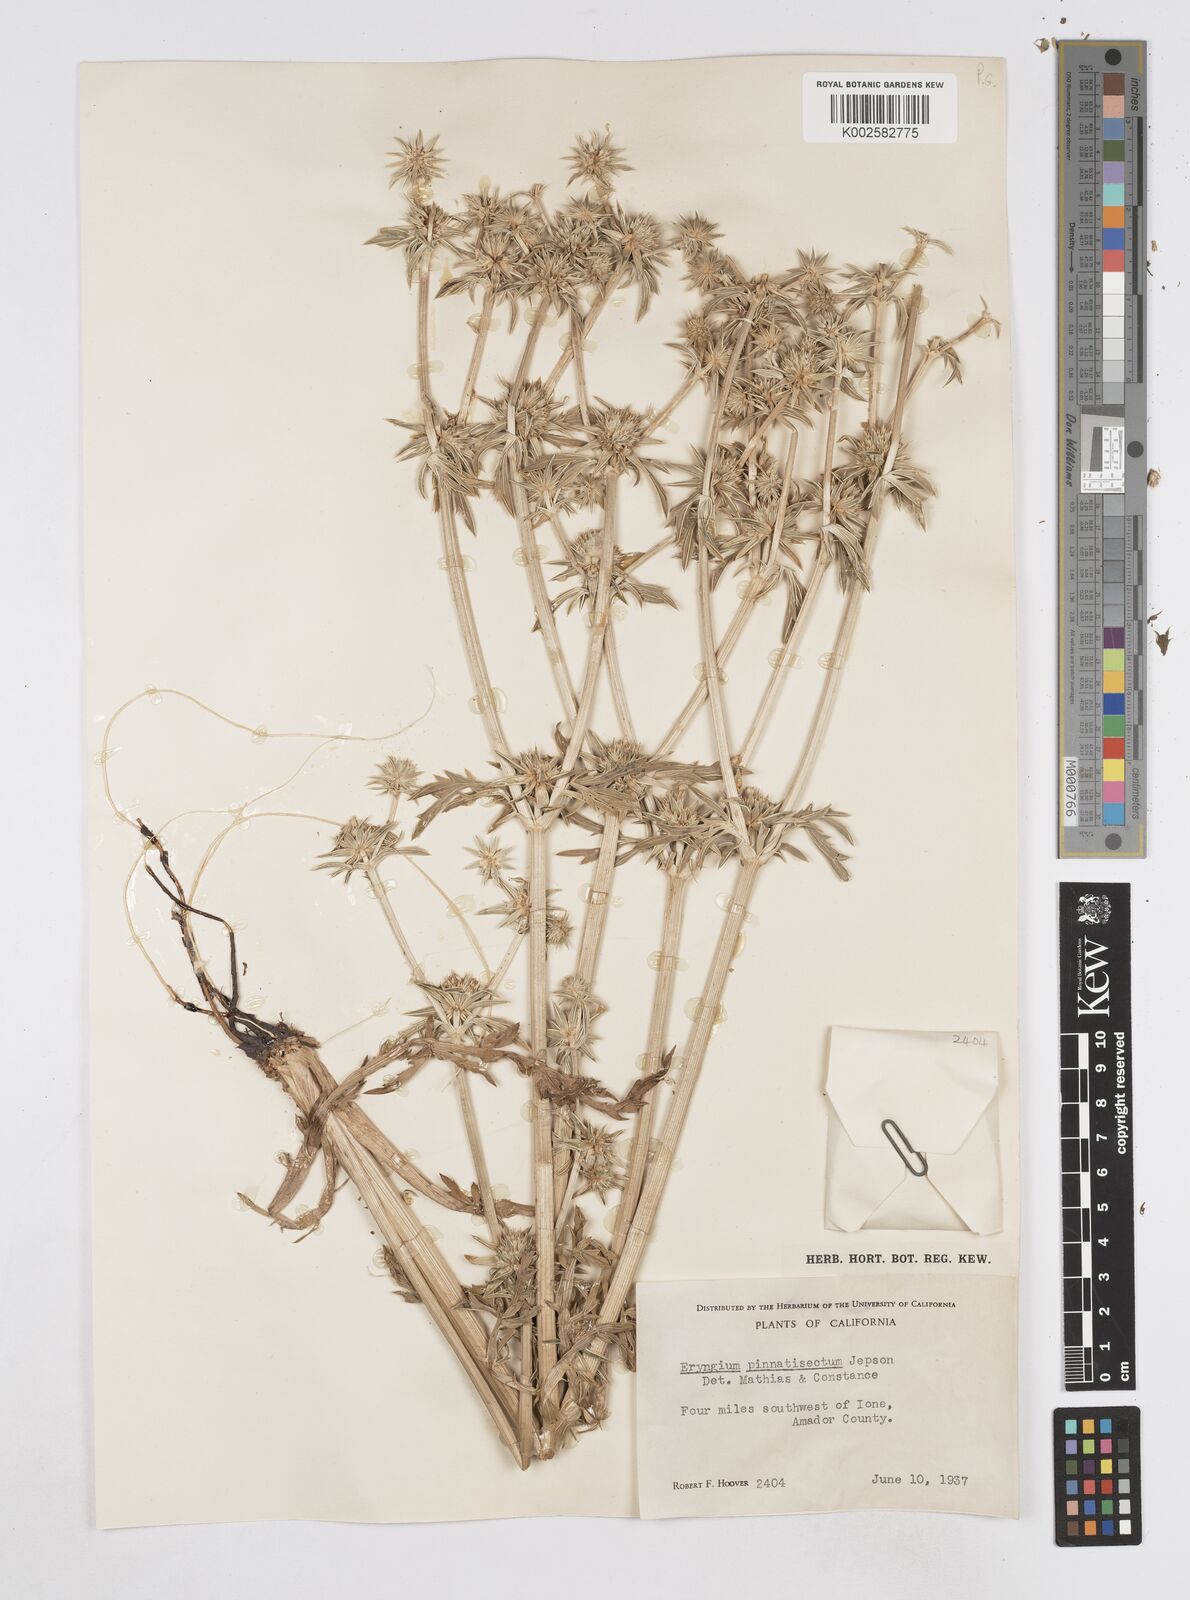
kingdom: Plantae
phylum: Tracheophyta
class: Magnoliopsida
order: Apiales
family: Apiaceae
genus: Eryngium
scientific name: Eryngium pinnatisectum
